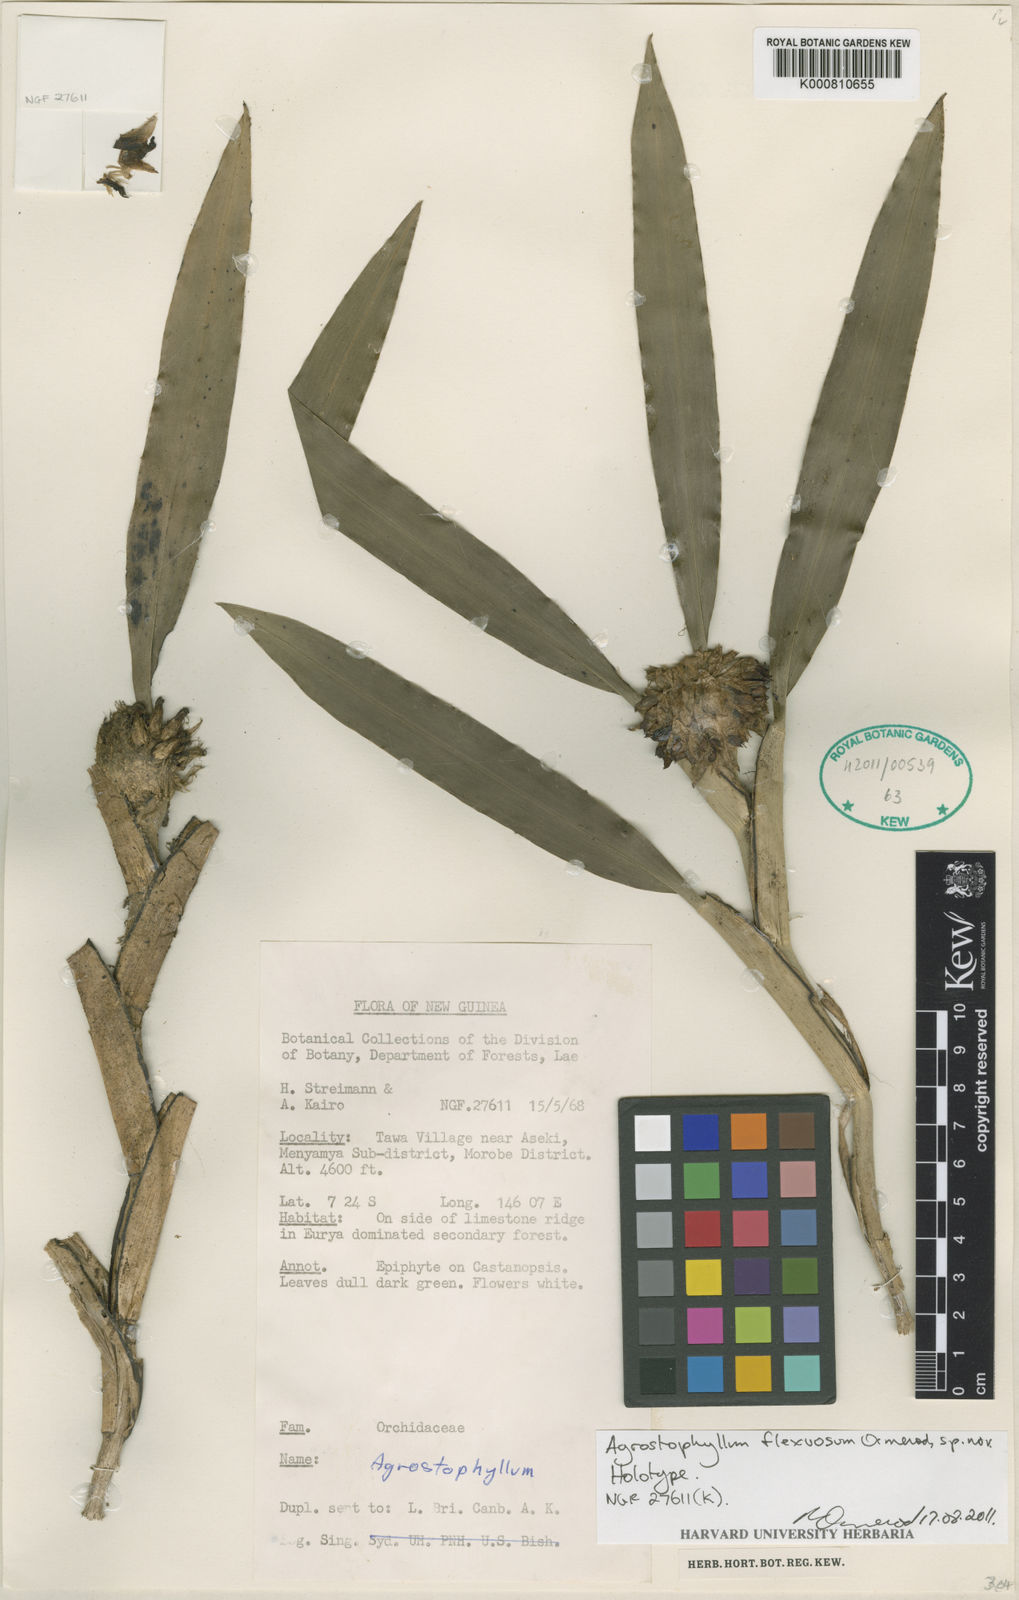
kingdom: Plantae
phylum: Tracheophyta
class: Liliopsida
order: Asparagales
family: Orchidaceae
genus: Agrostophyllum
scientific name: Agrostophyllum flexuosum
